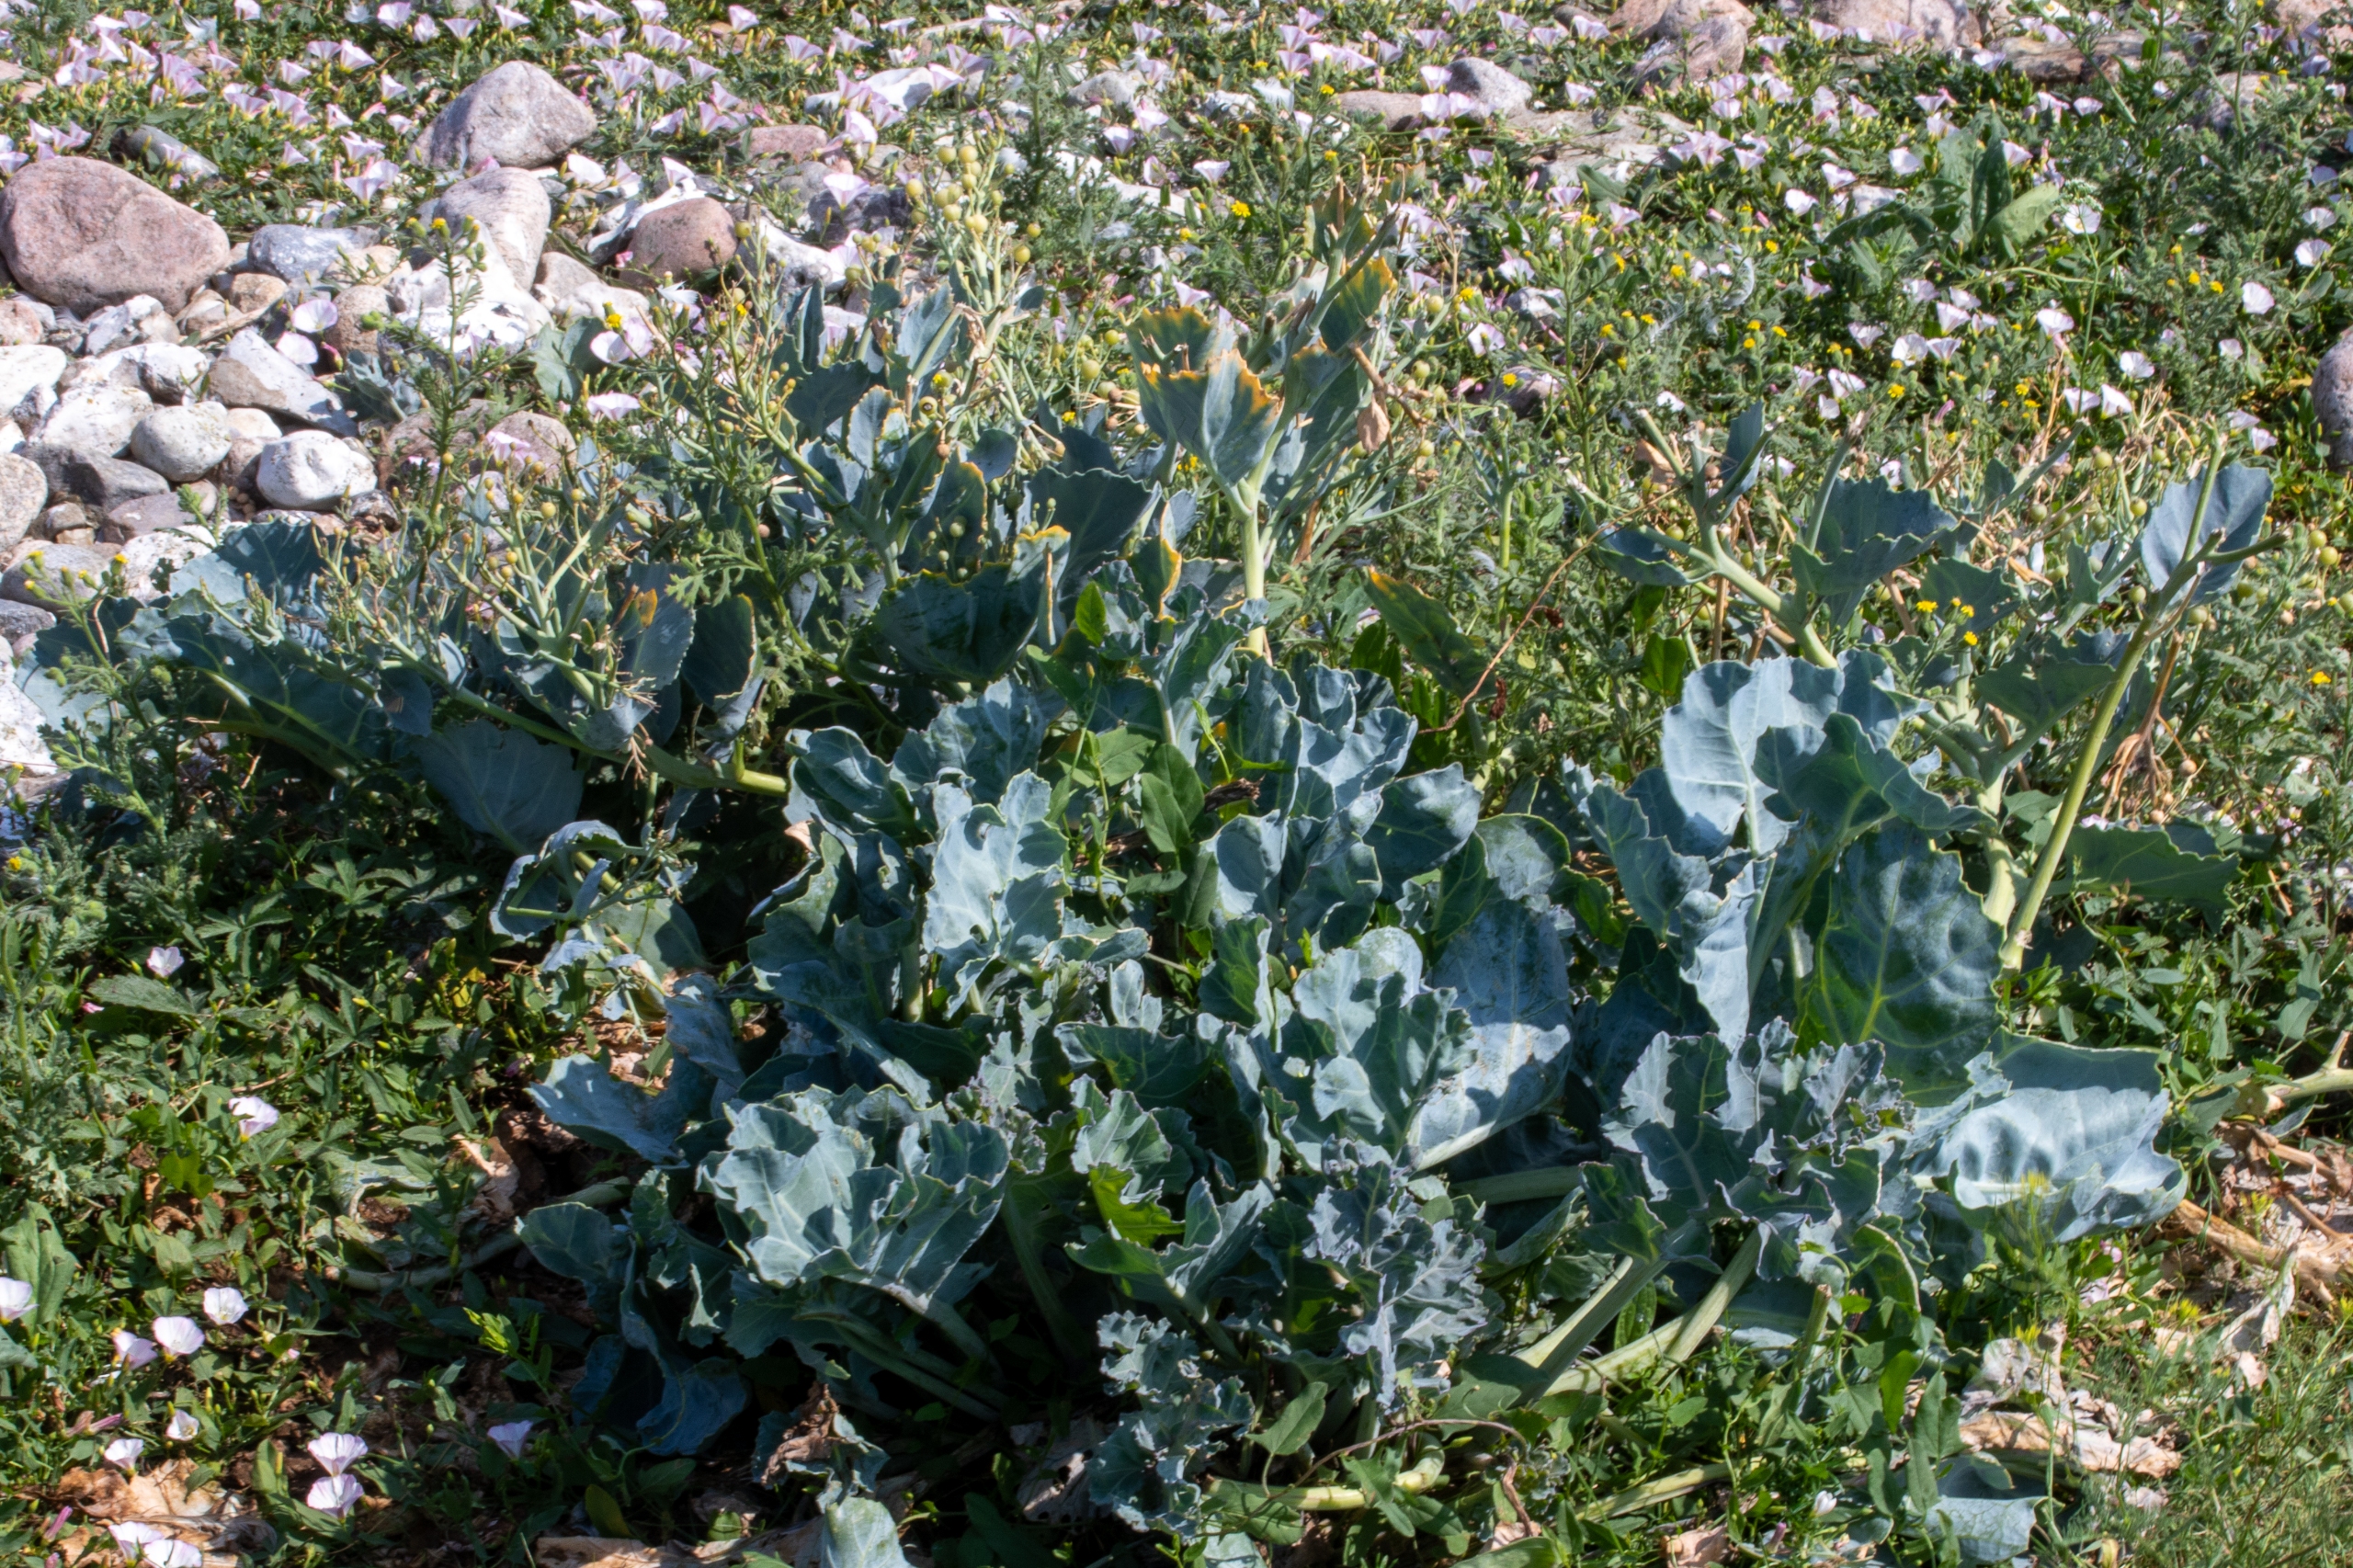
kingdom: Plantae
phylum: Tracheophyta
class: Magnoliopsida
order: Brassicales
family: Brassicaceae
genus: Crambe
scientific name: Crambe maritima
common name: Strandkål
